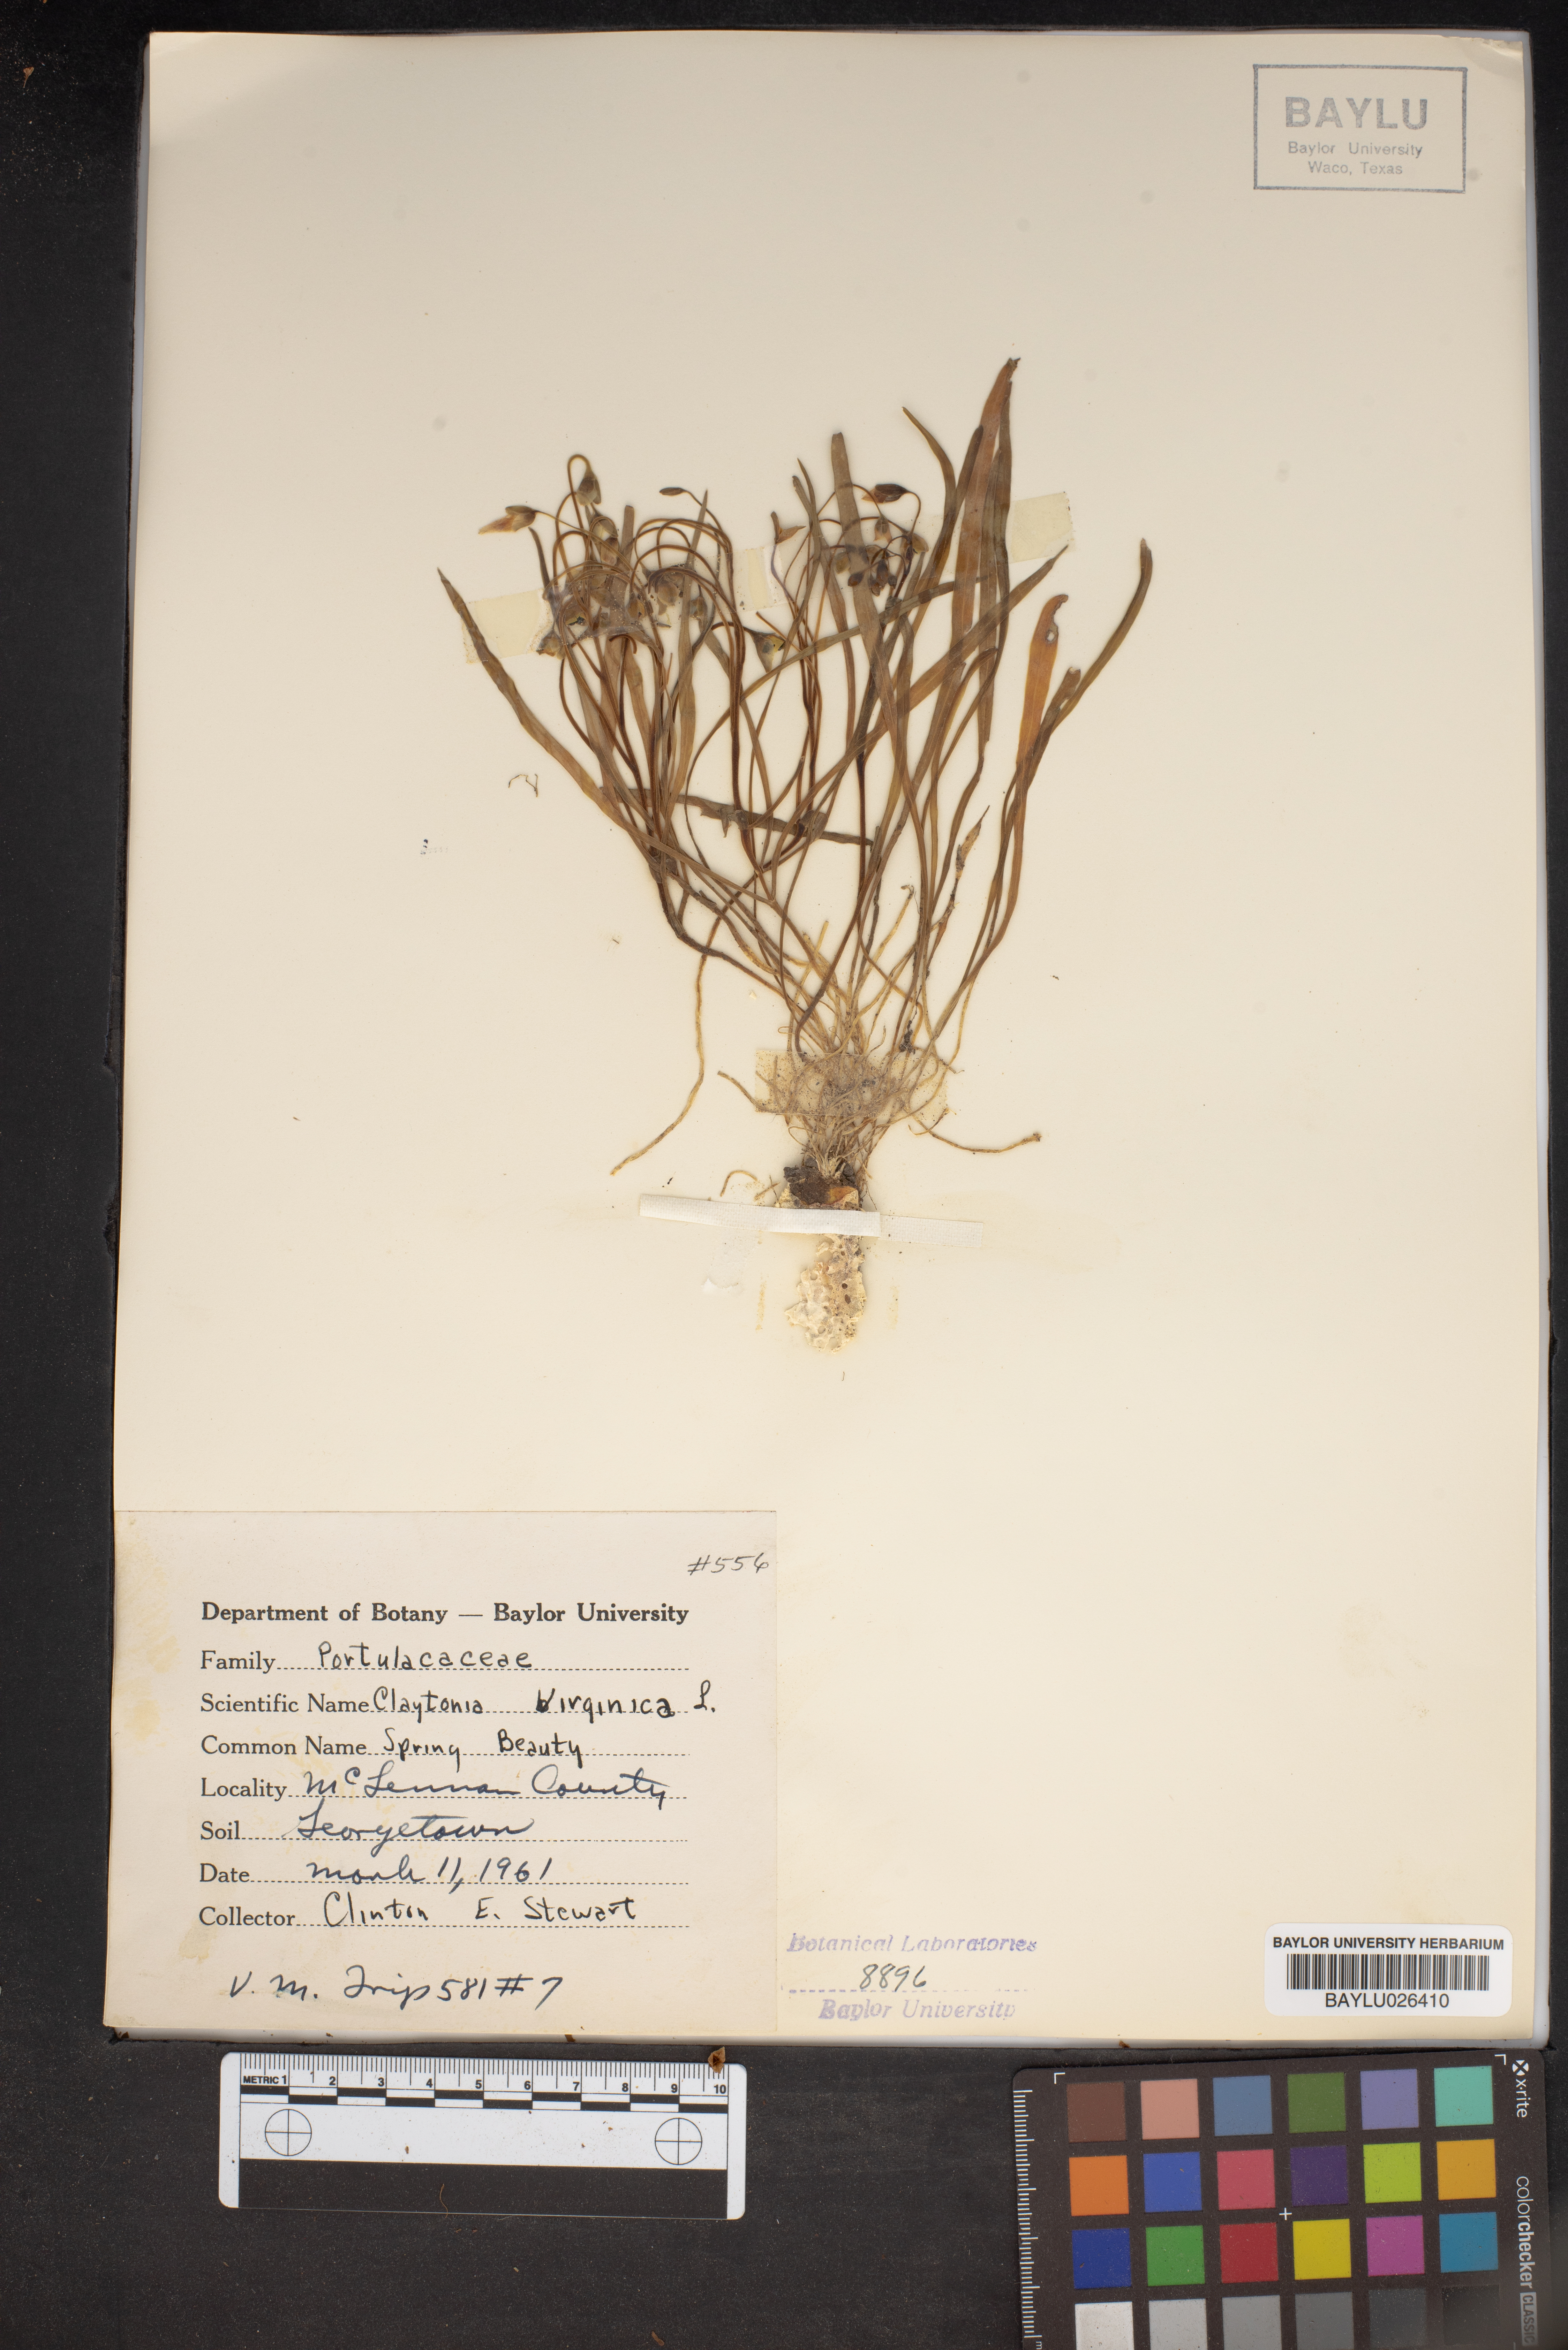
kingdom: Plantae
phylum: Tracheophyta
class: Magnoliopsida
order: Caryophyllales
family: Montiaceae
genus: Claytonia
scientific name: Claytonia virginica
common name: Virginia springbeauty
